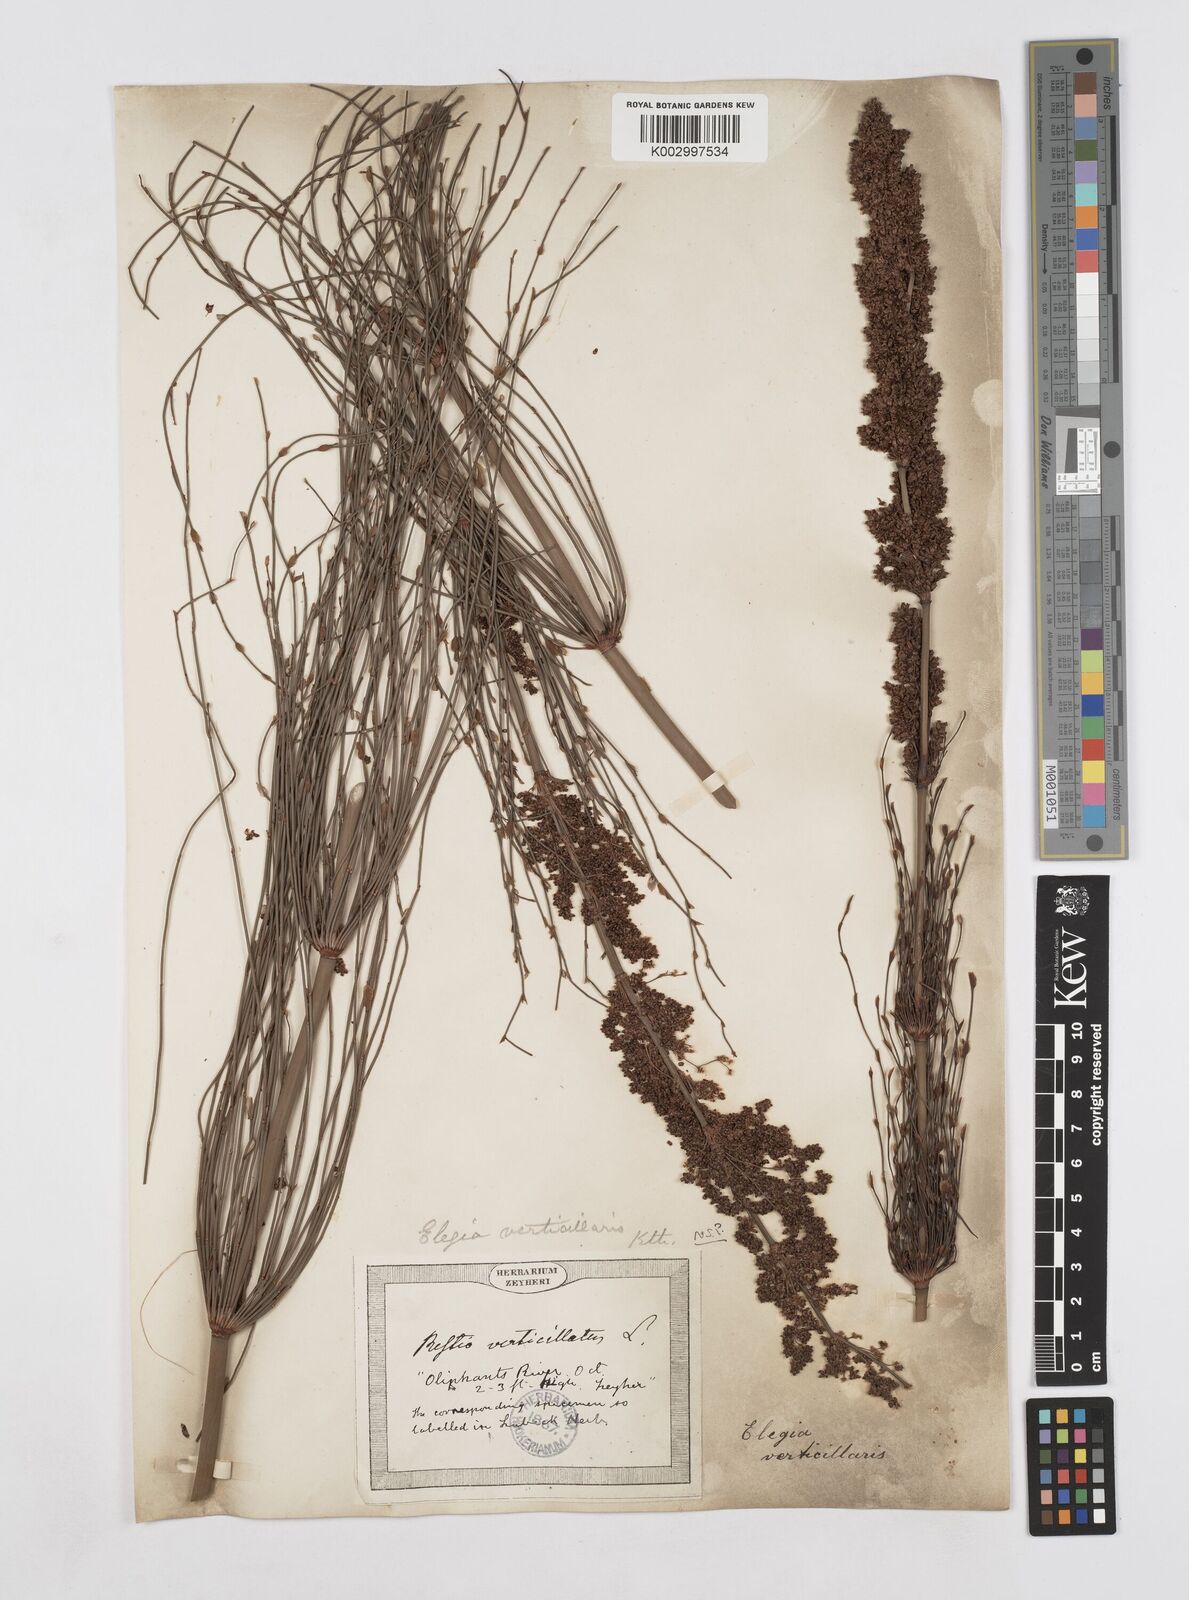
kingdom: Plantae
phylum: Tracheophyta
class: Liliopsida
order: Poales
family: Restionaceae
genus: Elegia
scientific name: Elegia capensis
